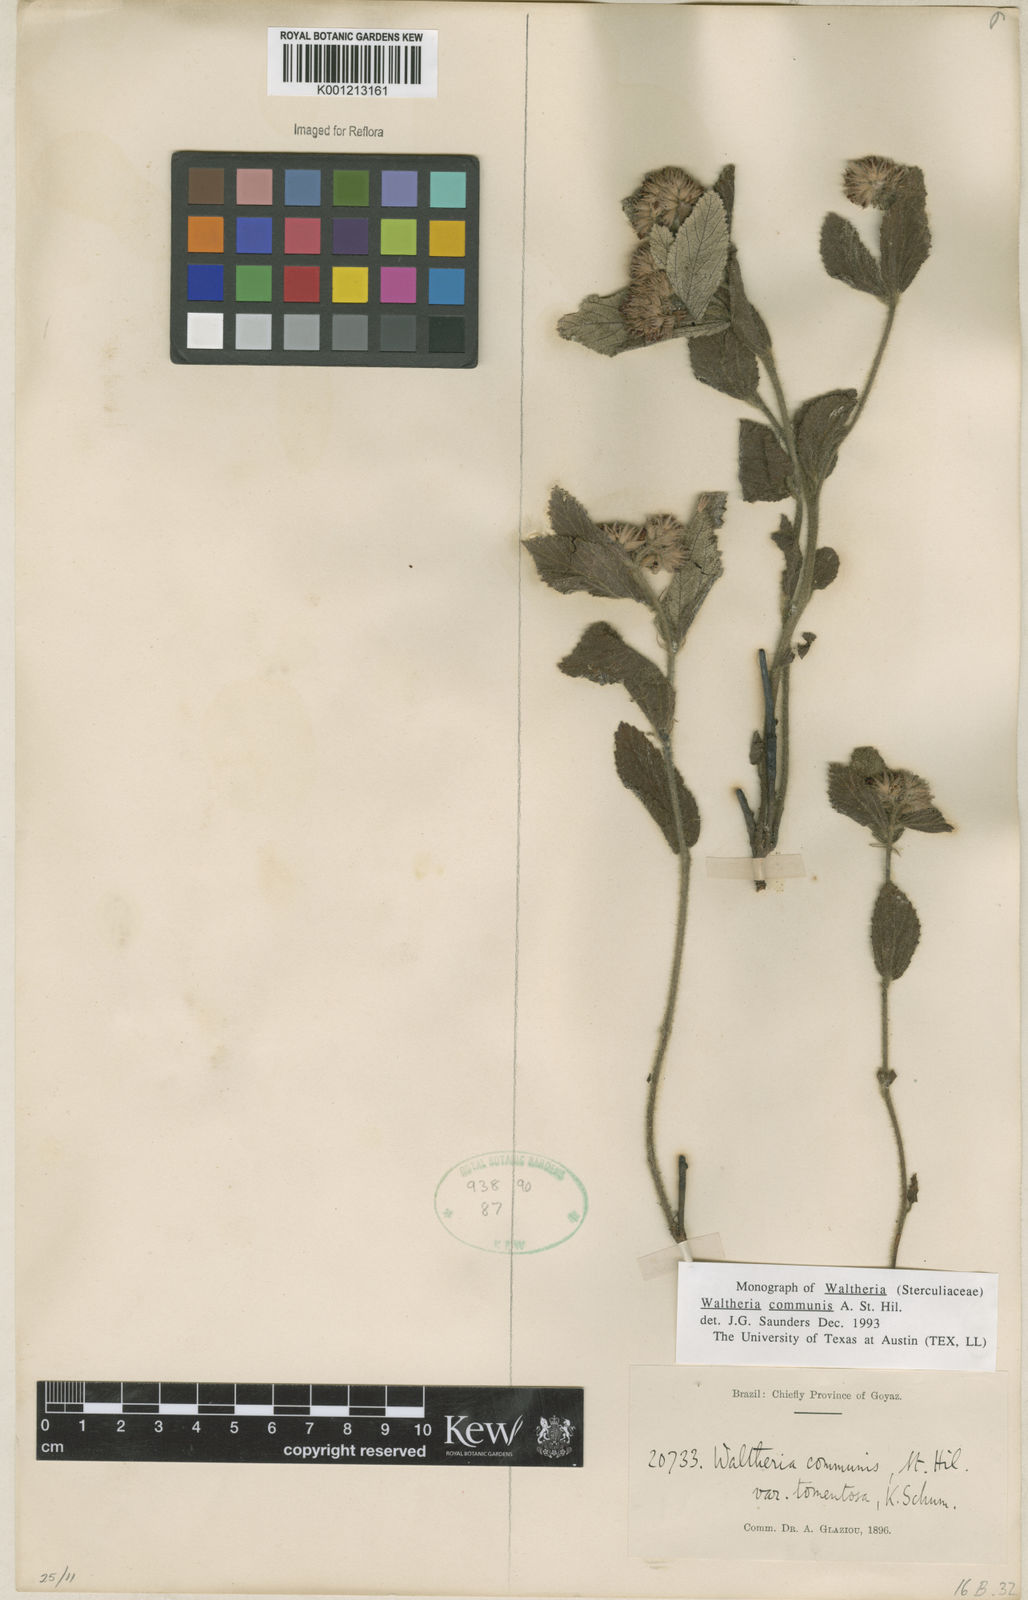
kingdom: Plantae
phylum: Tracheophyta
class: Magnoliopsida
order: Malvales
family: Malvaceae
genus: Waltheria
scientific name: Waltheria communis
